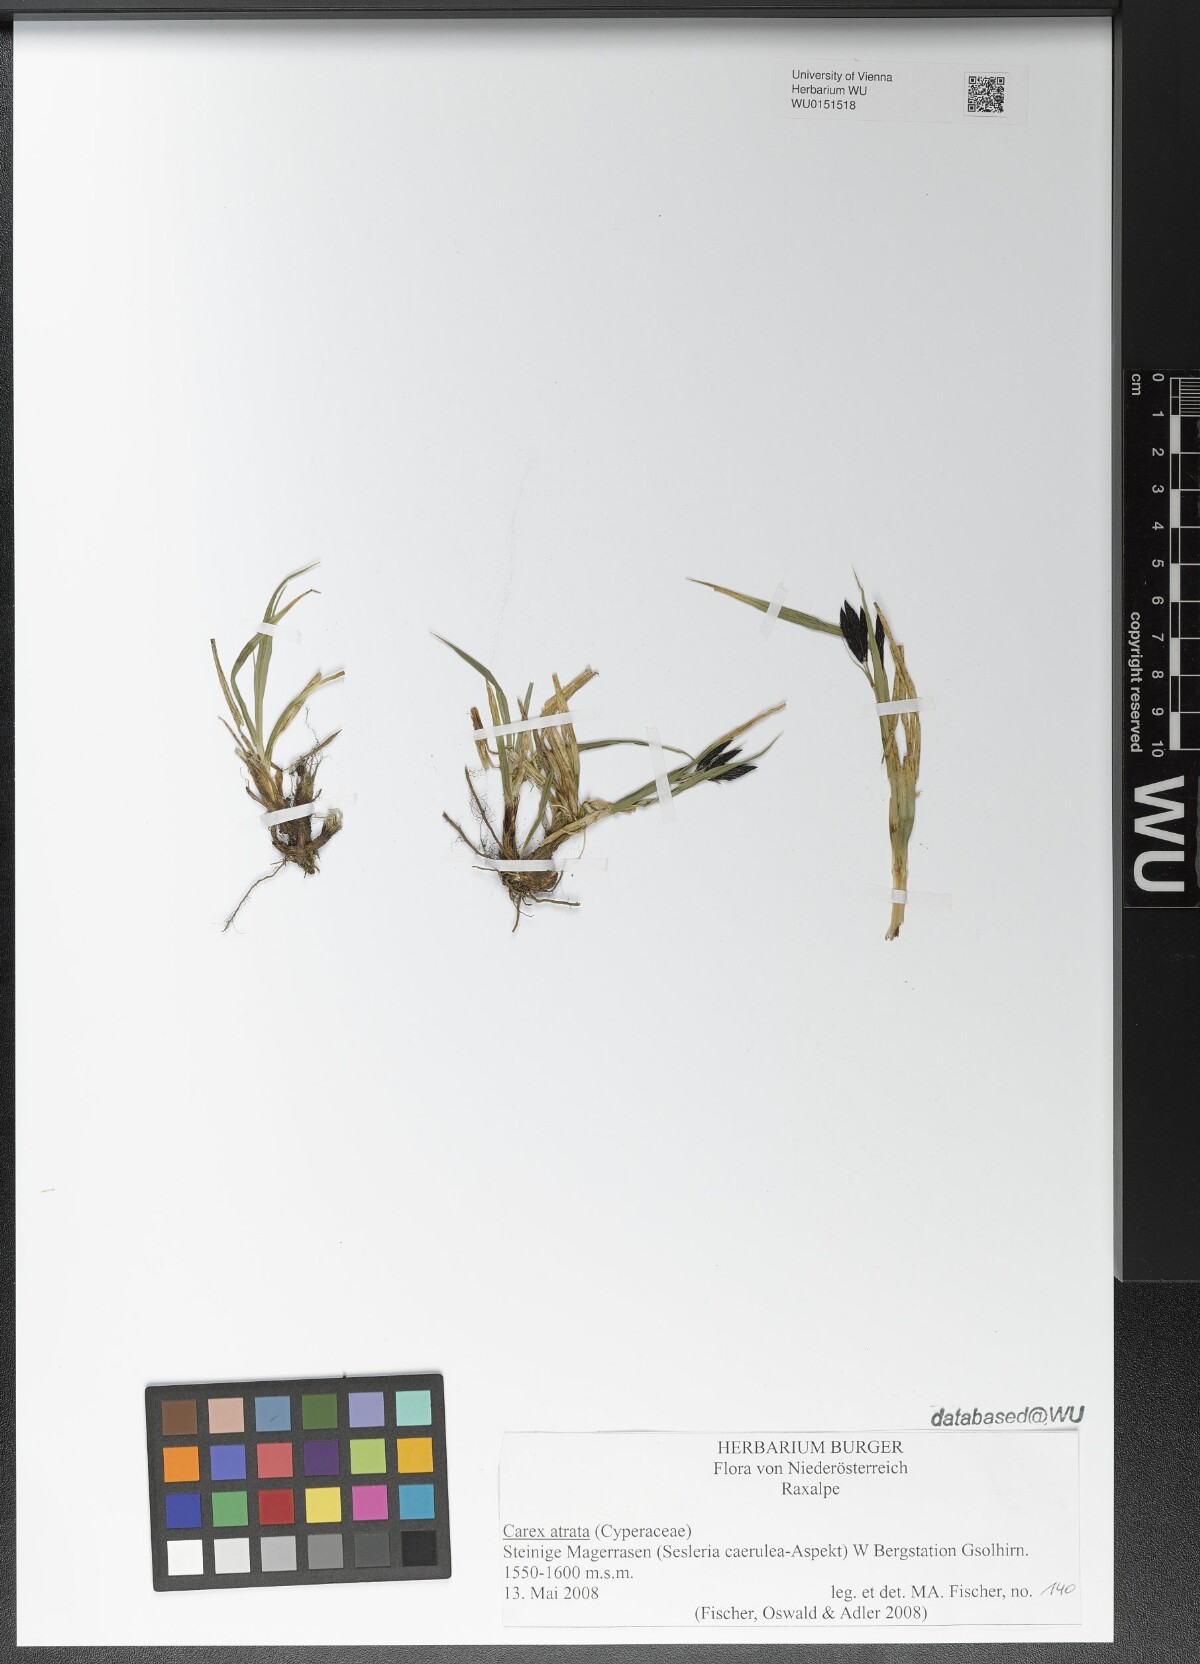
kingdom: Plantae
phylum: Tracheophyta
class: Liliopsida
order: Poales
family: Cyperaceae
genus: Carex
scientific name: Carex atrata
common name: Black alpine sedge
